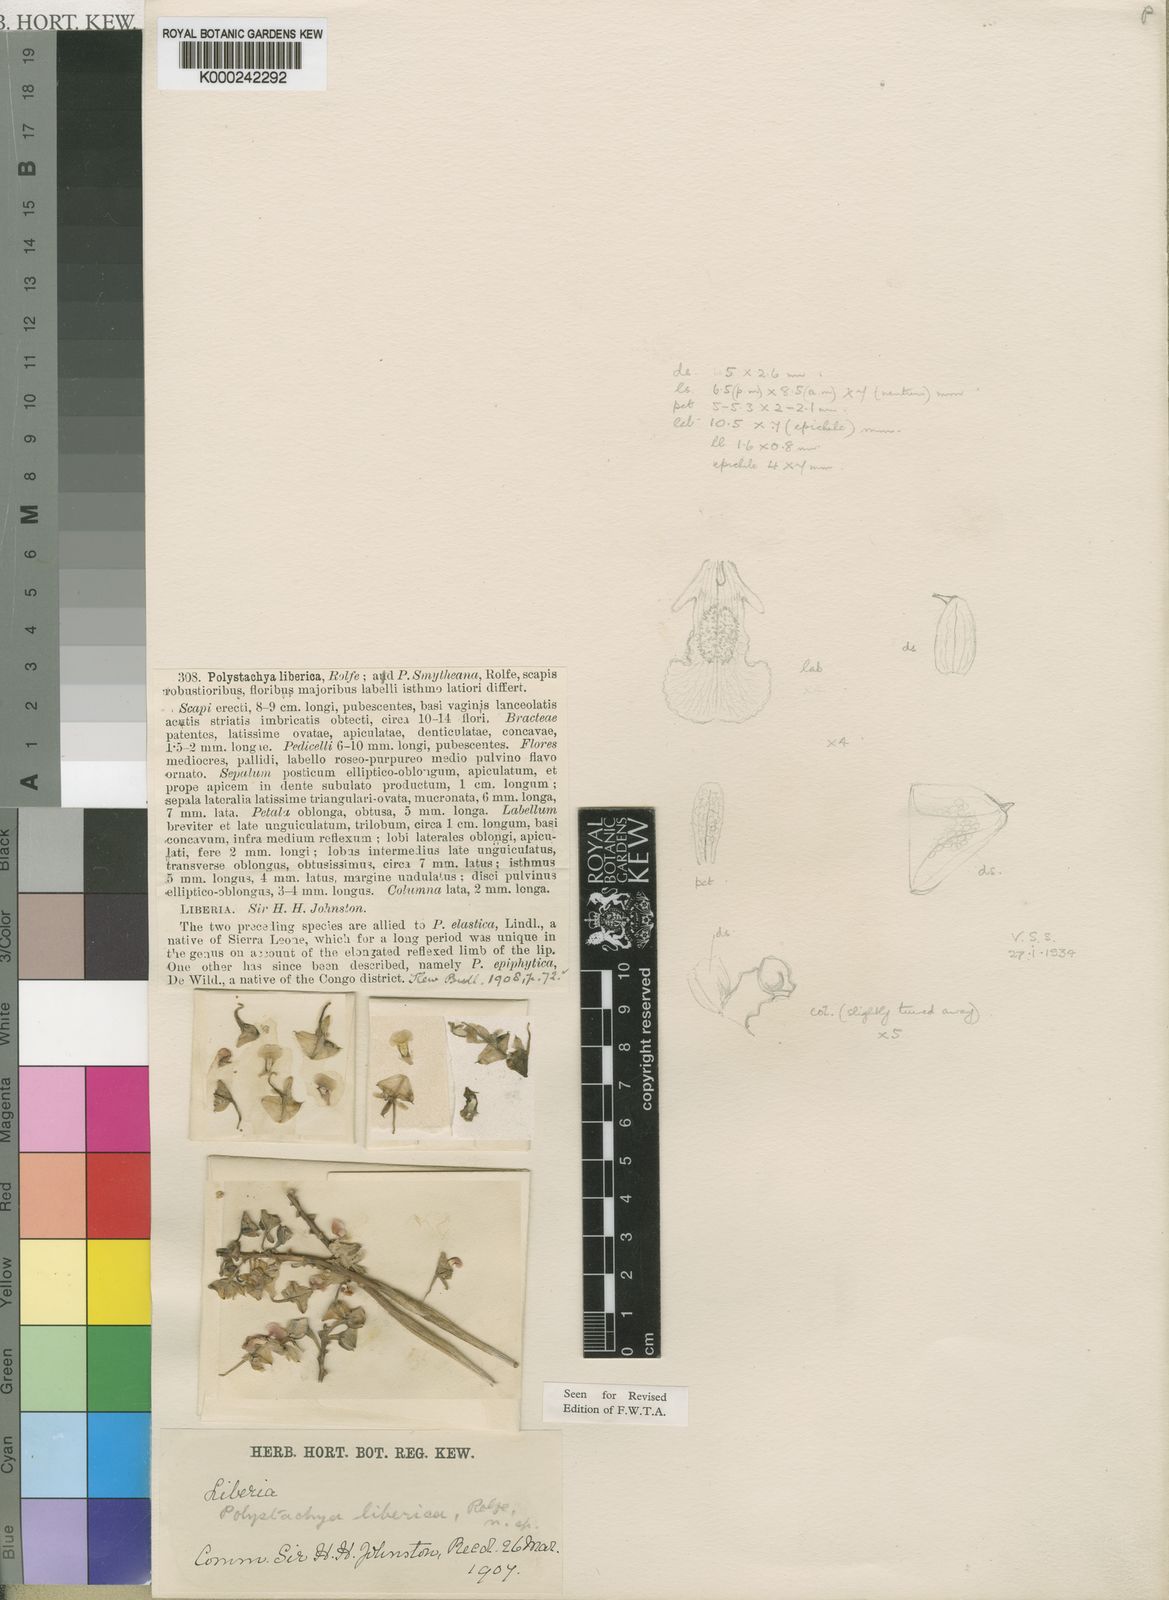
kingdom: Plantae
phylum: Tracheophyta
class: Liliopsida
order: Asparagales
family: Orchidaceae
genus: Polystachya
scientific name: Polystachya reflexa
